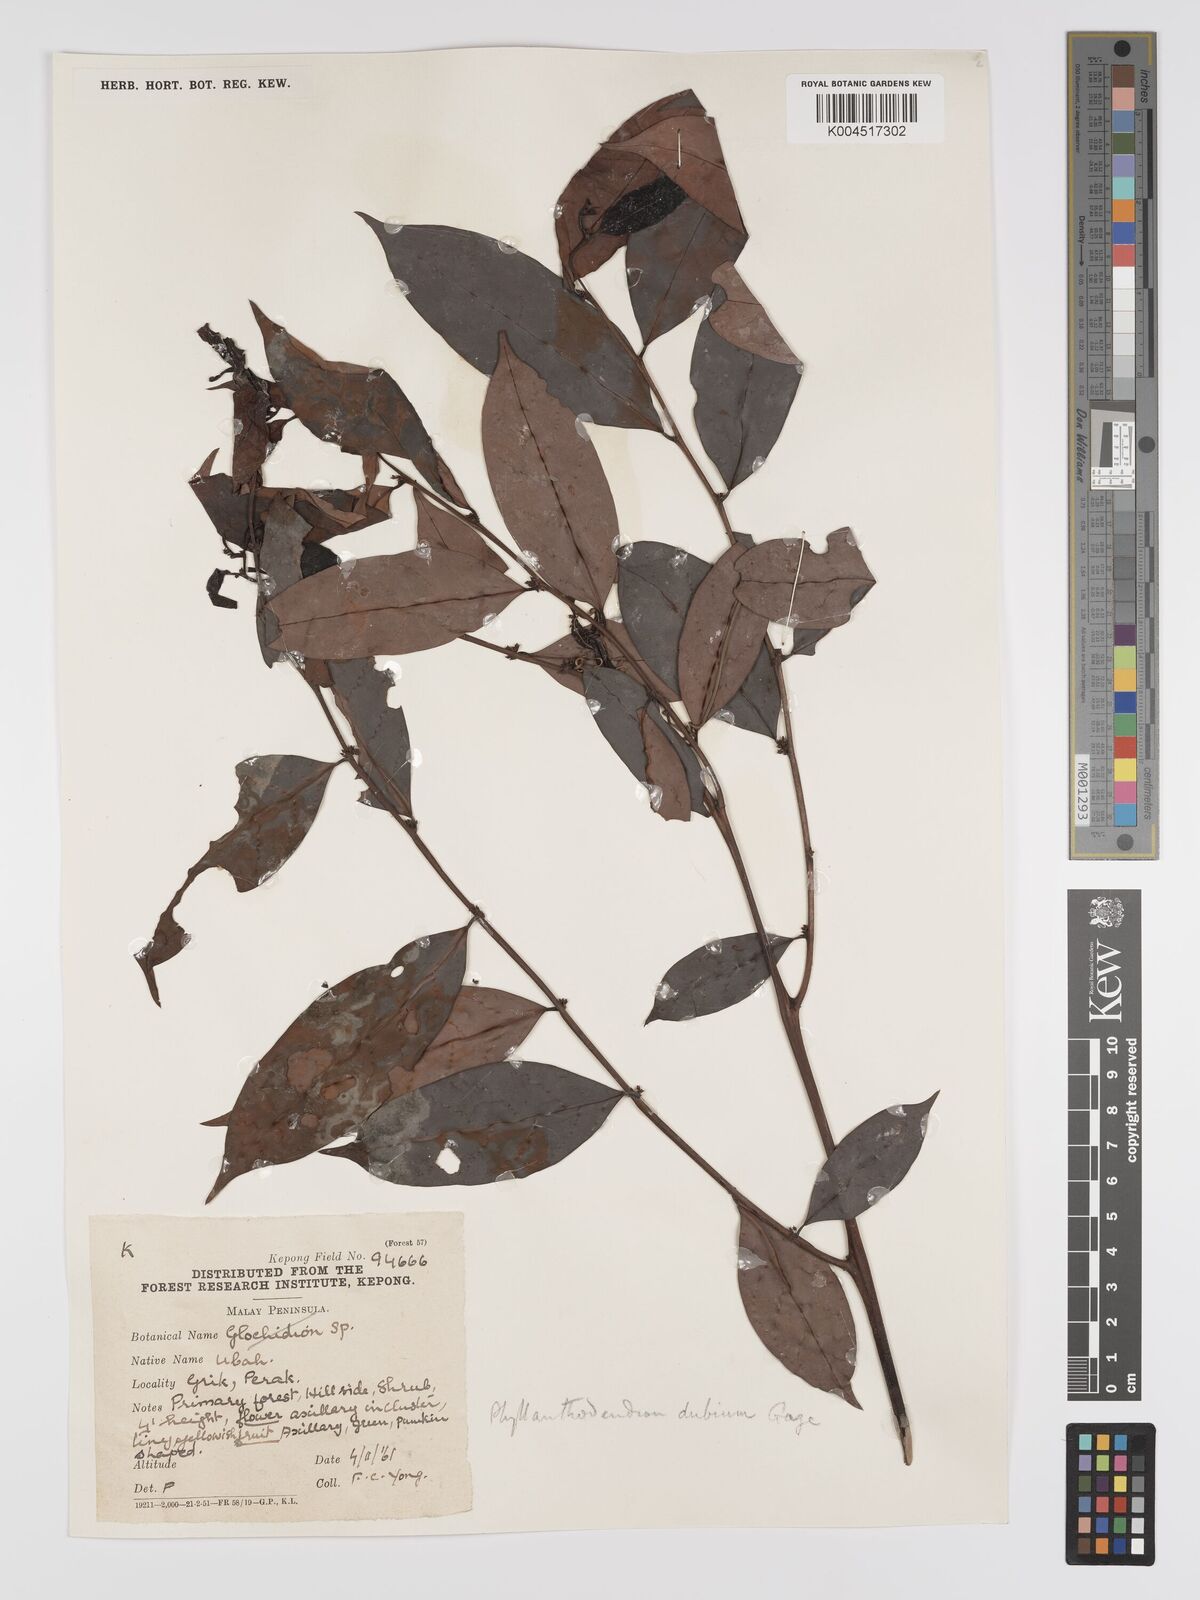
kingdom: Plantae
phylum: Tracheophyta
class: Magnoliopsida
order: Malpighiales
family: Phyllanthaceae
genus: Phyllanthus
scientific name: Phyllanthus roseus
